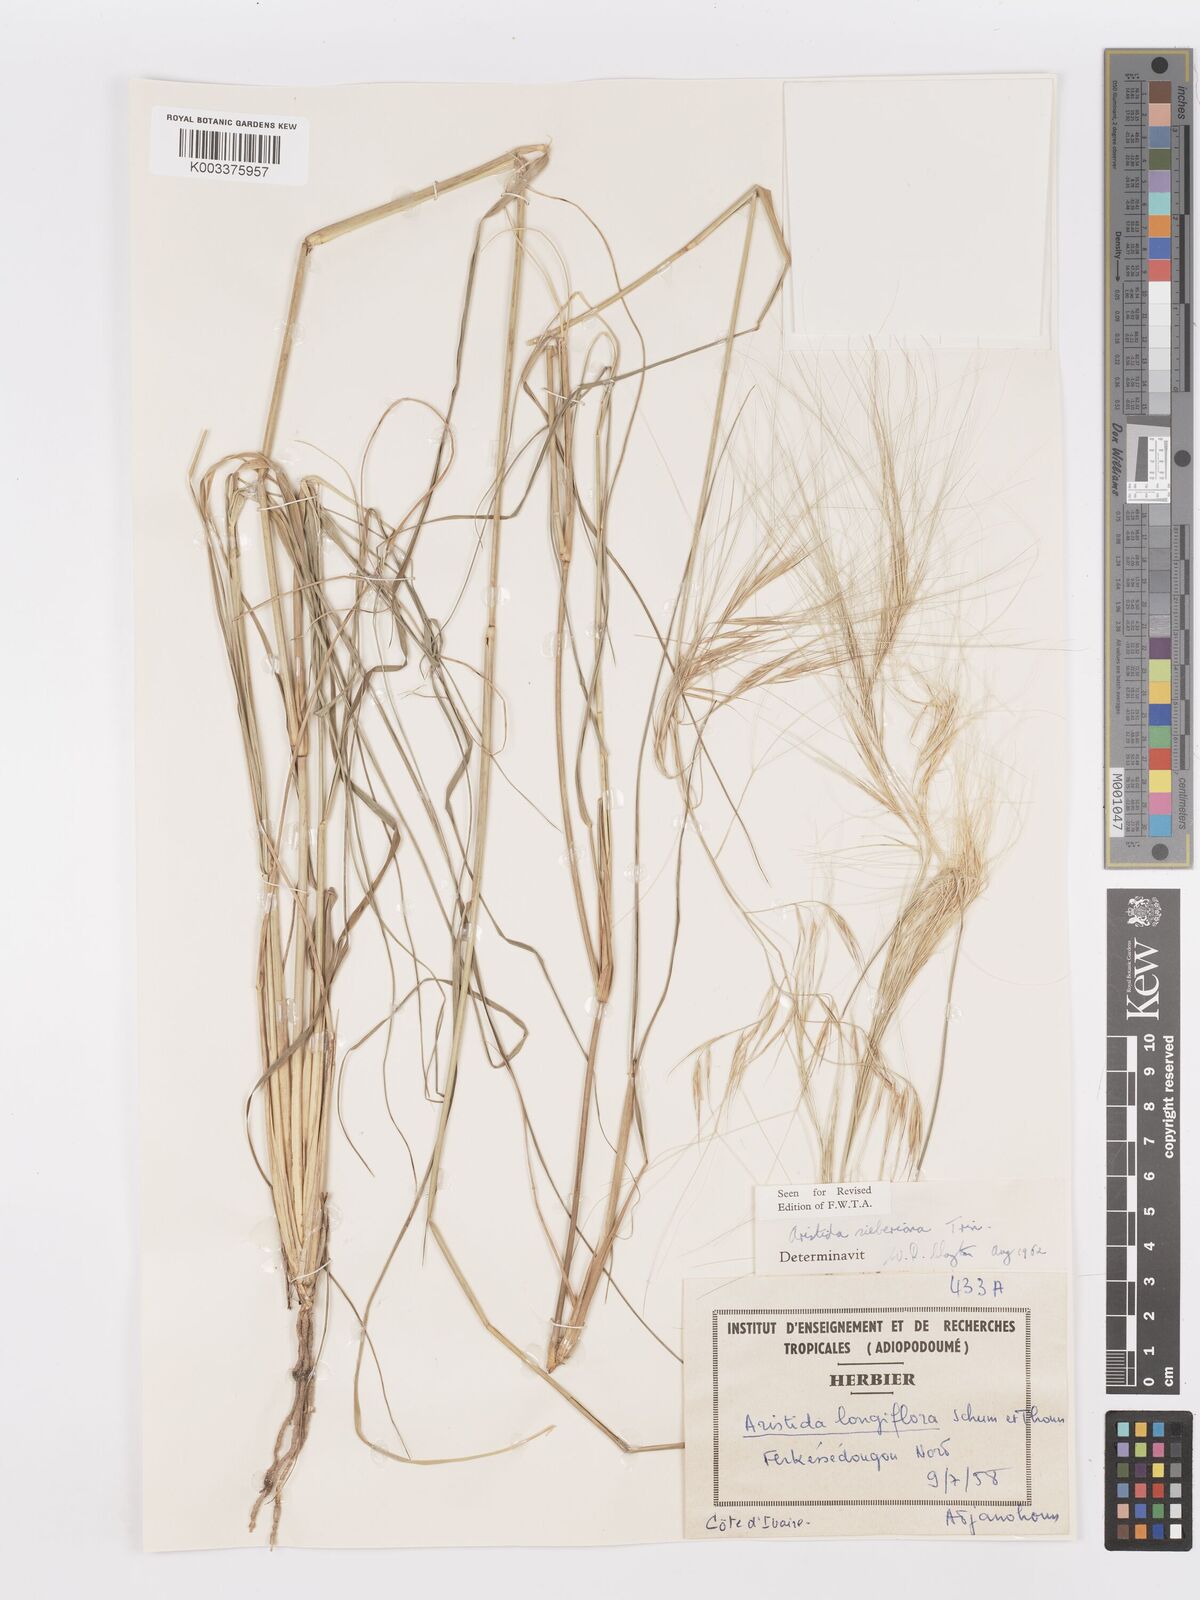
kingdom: Plantae
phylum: Tracheophyta
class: Liliopsida
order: Poales
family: Poaceae
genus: Aristida
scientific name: Aristida sieberiana
